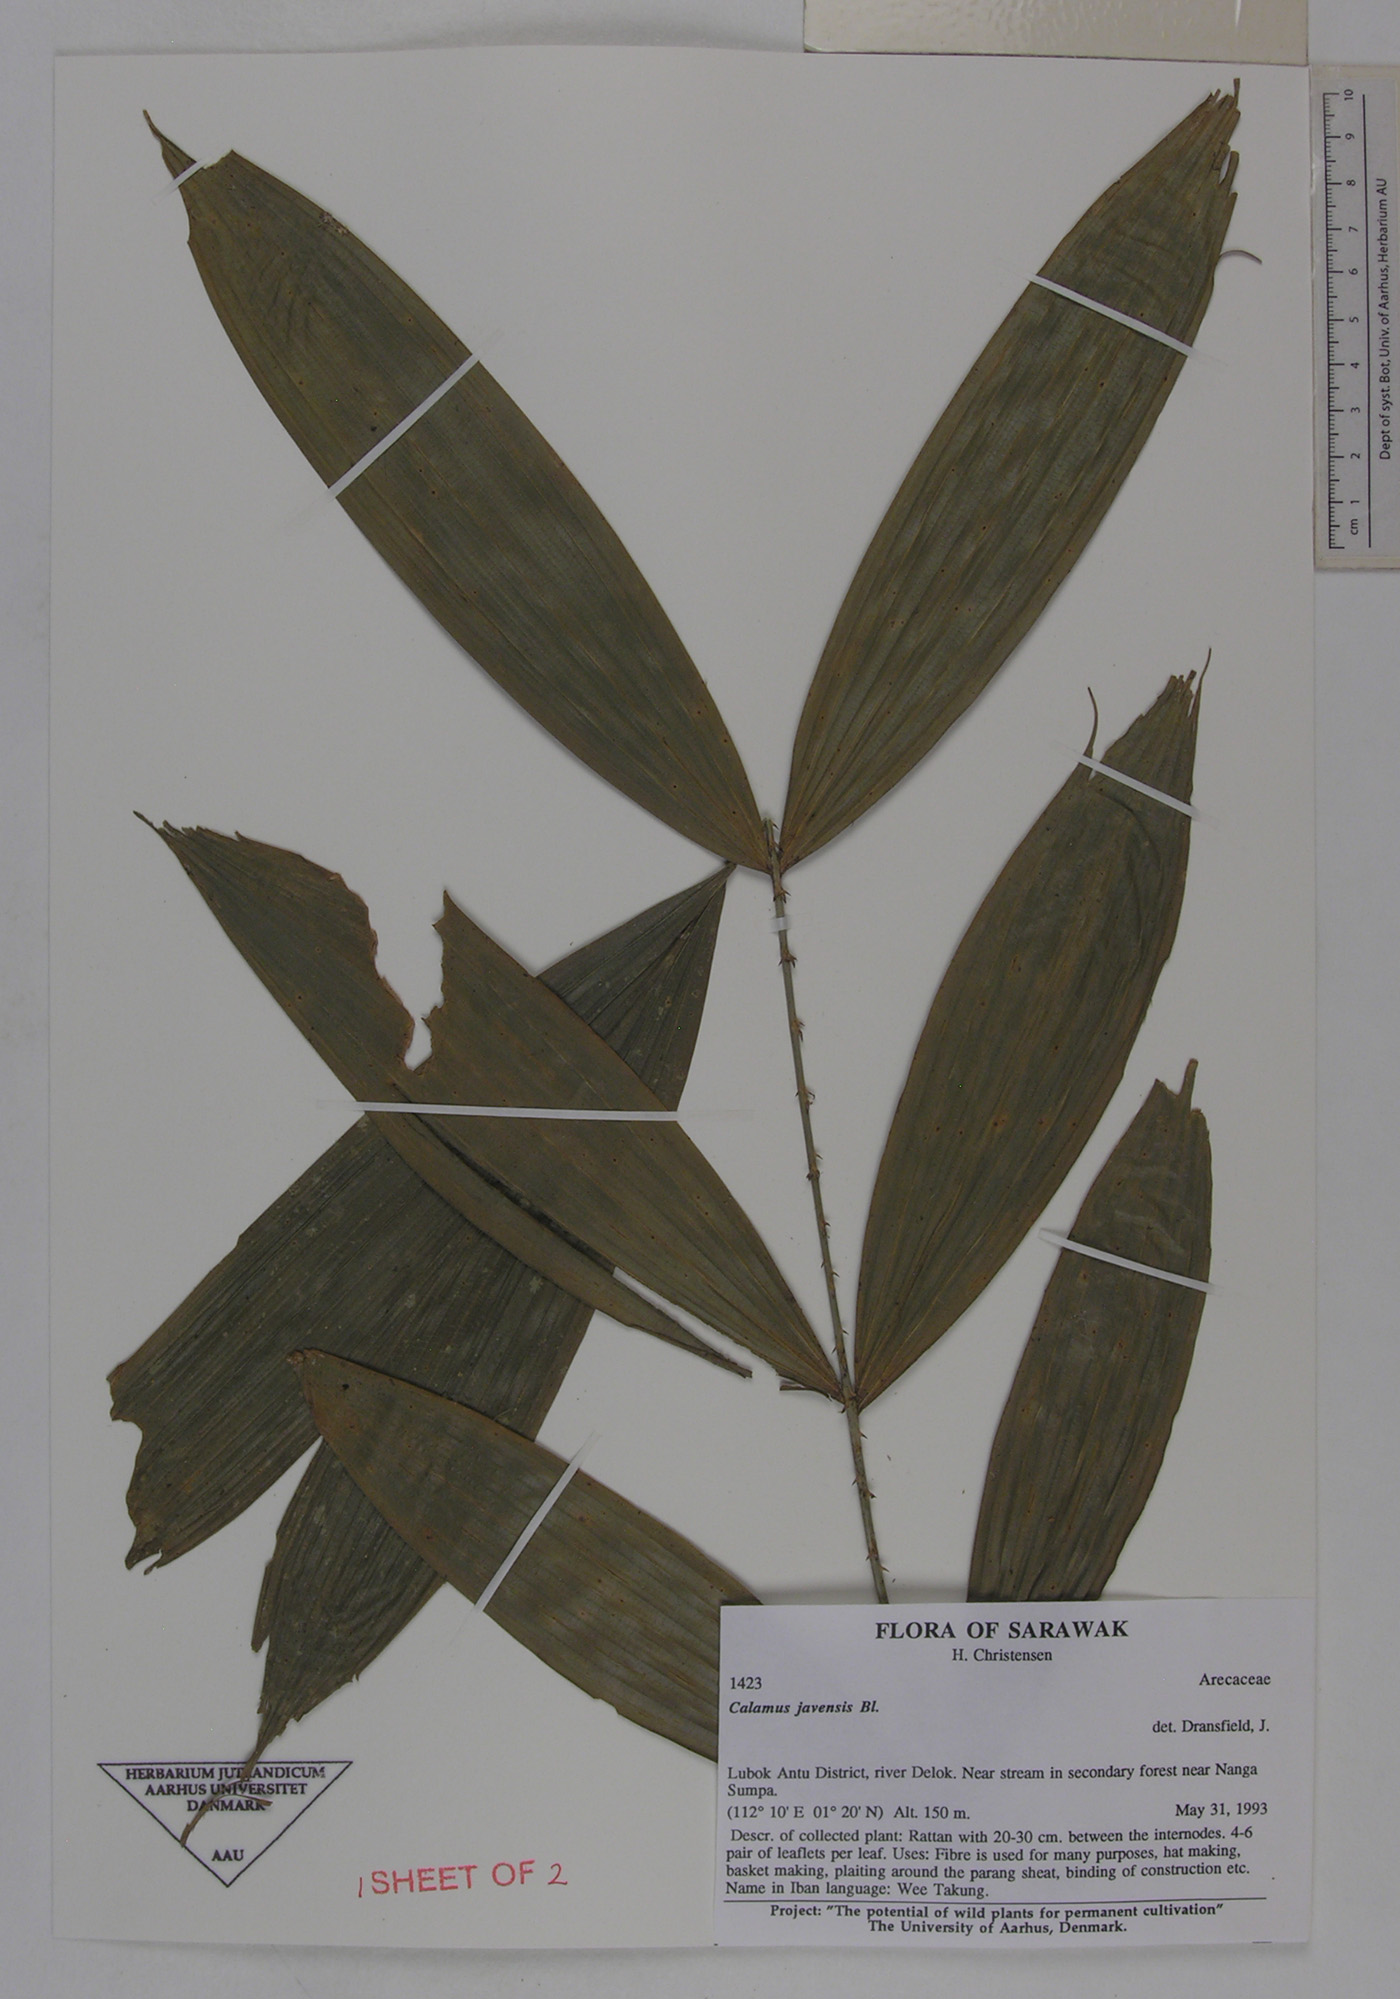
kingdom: Plantae
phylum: Tracheophyta
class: Liliopsida
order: Arecales
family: Arecaceae
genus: Calamus
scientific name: Calamus javensis
